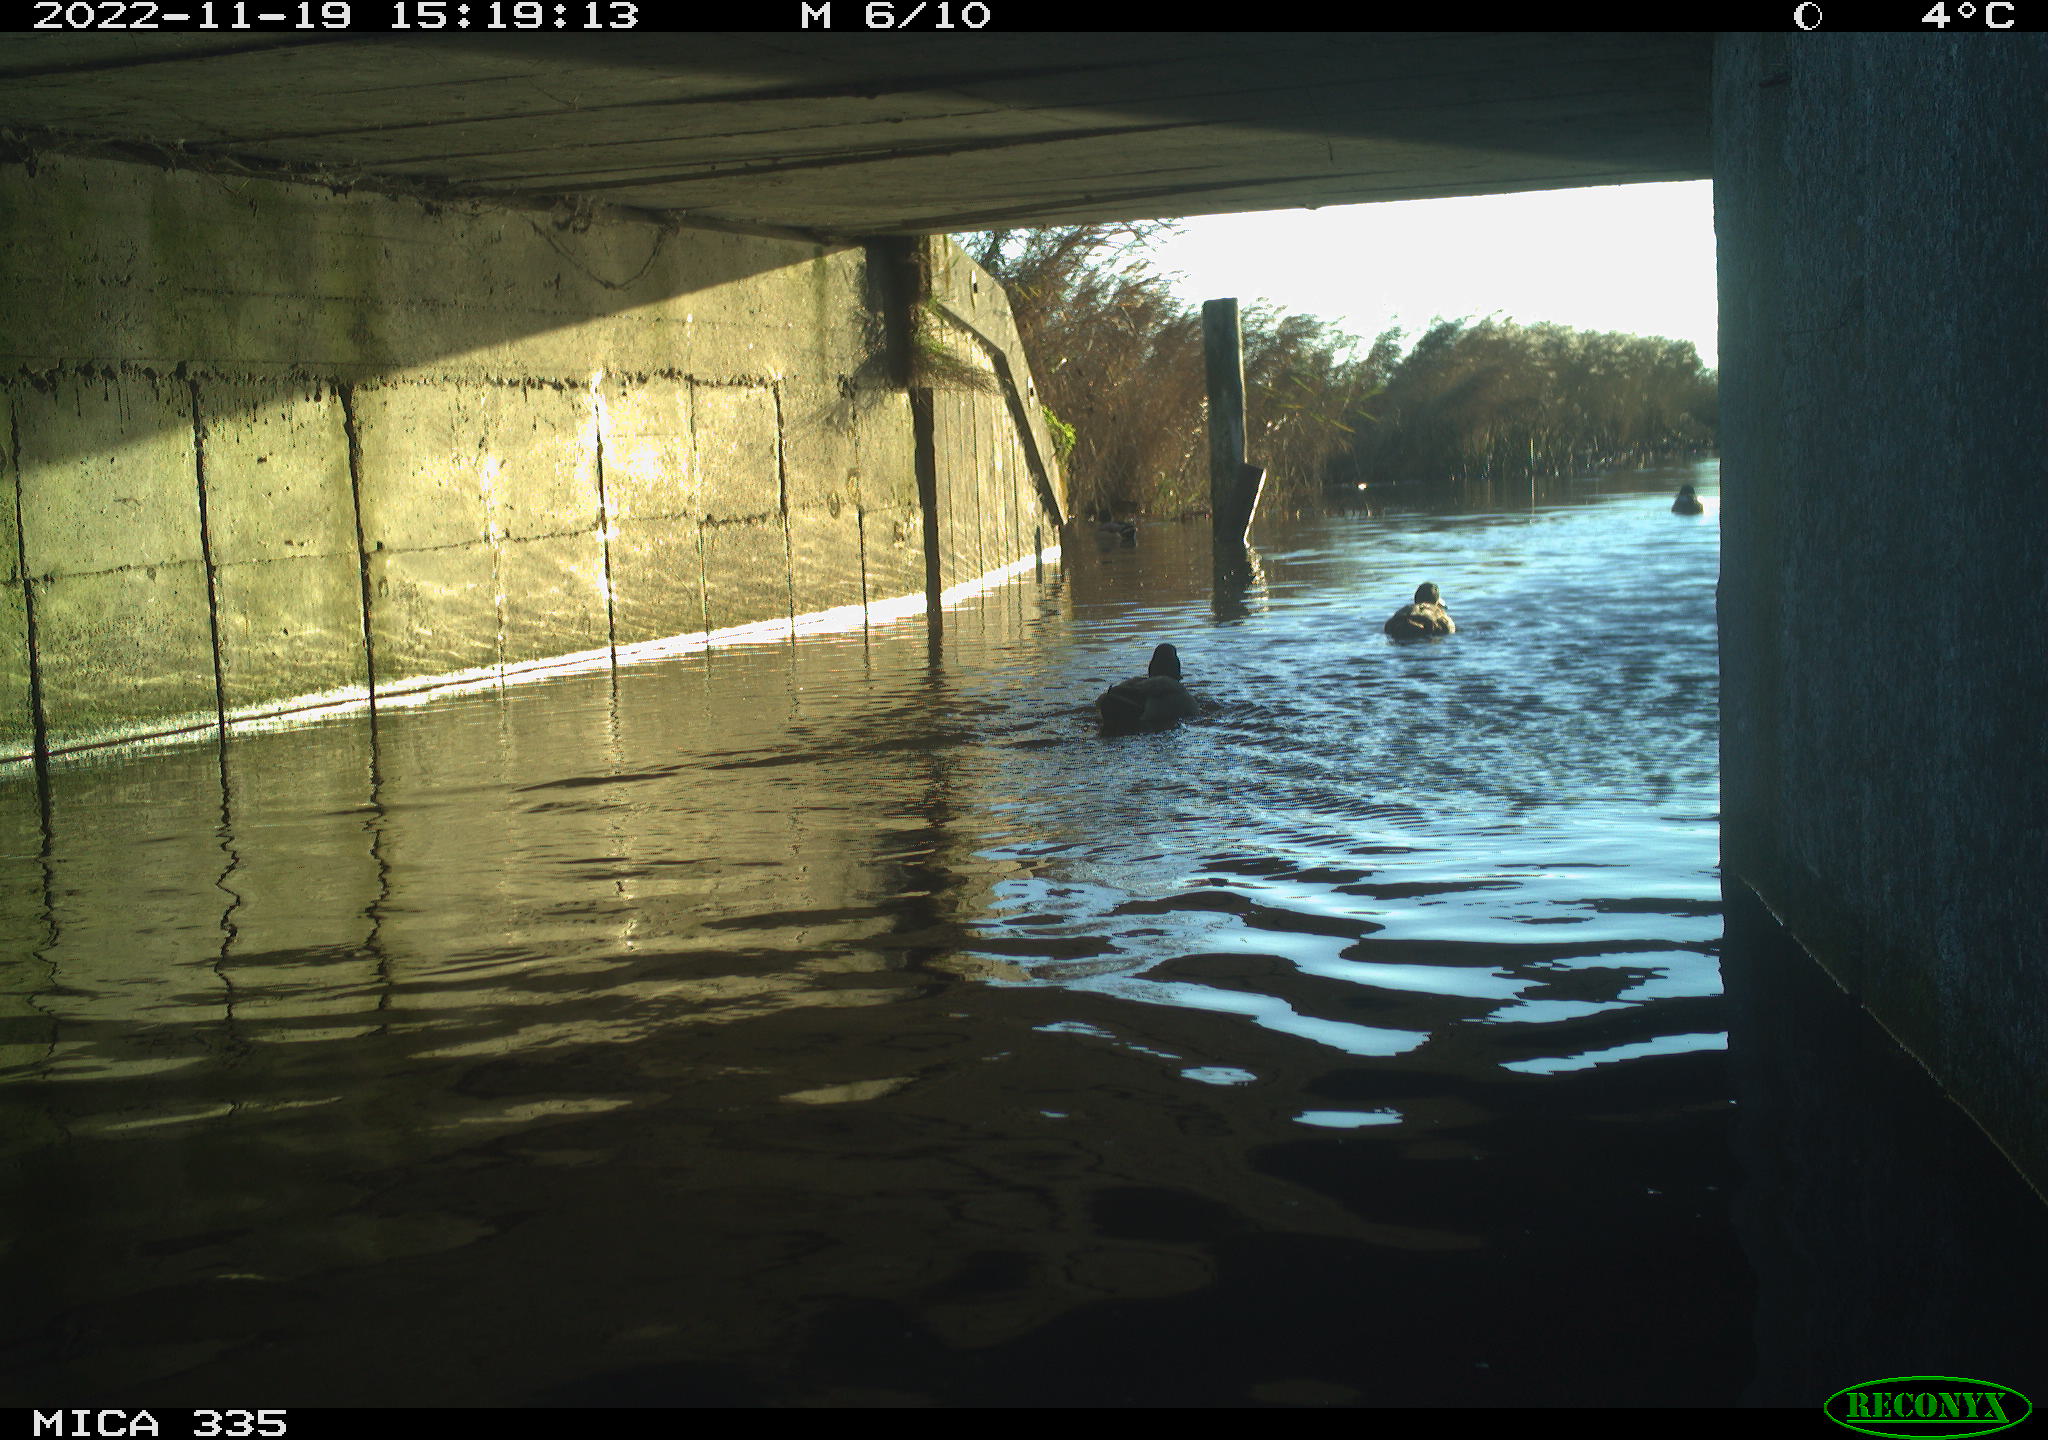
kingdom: Animalia
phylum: Chordata
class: Aves
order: Anseriformes
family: Anatidae
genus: Anas
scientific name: Anas
